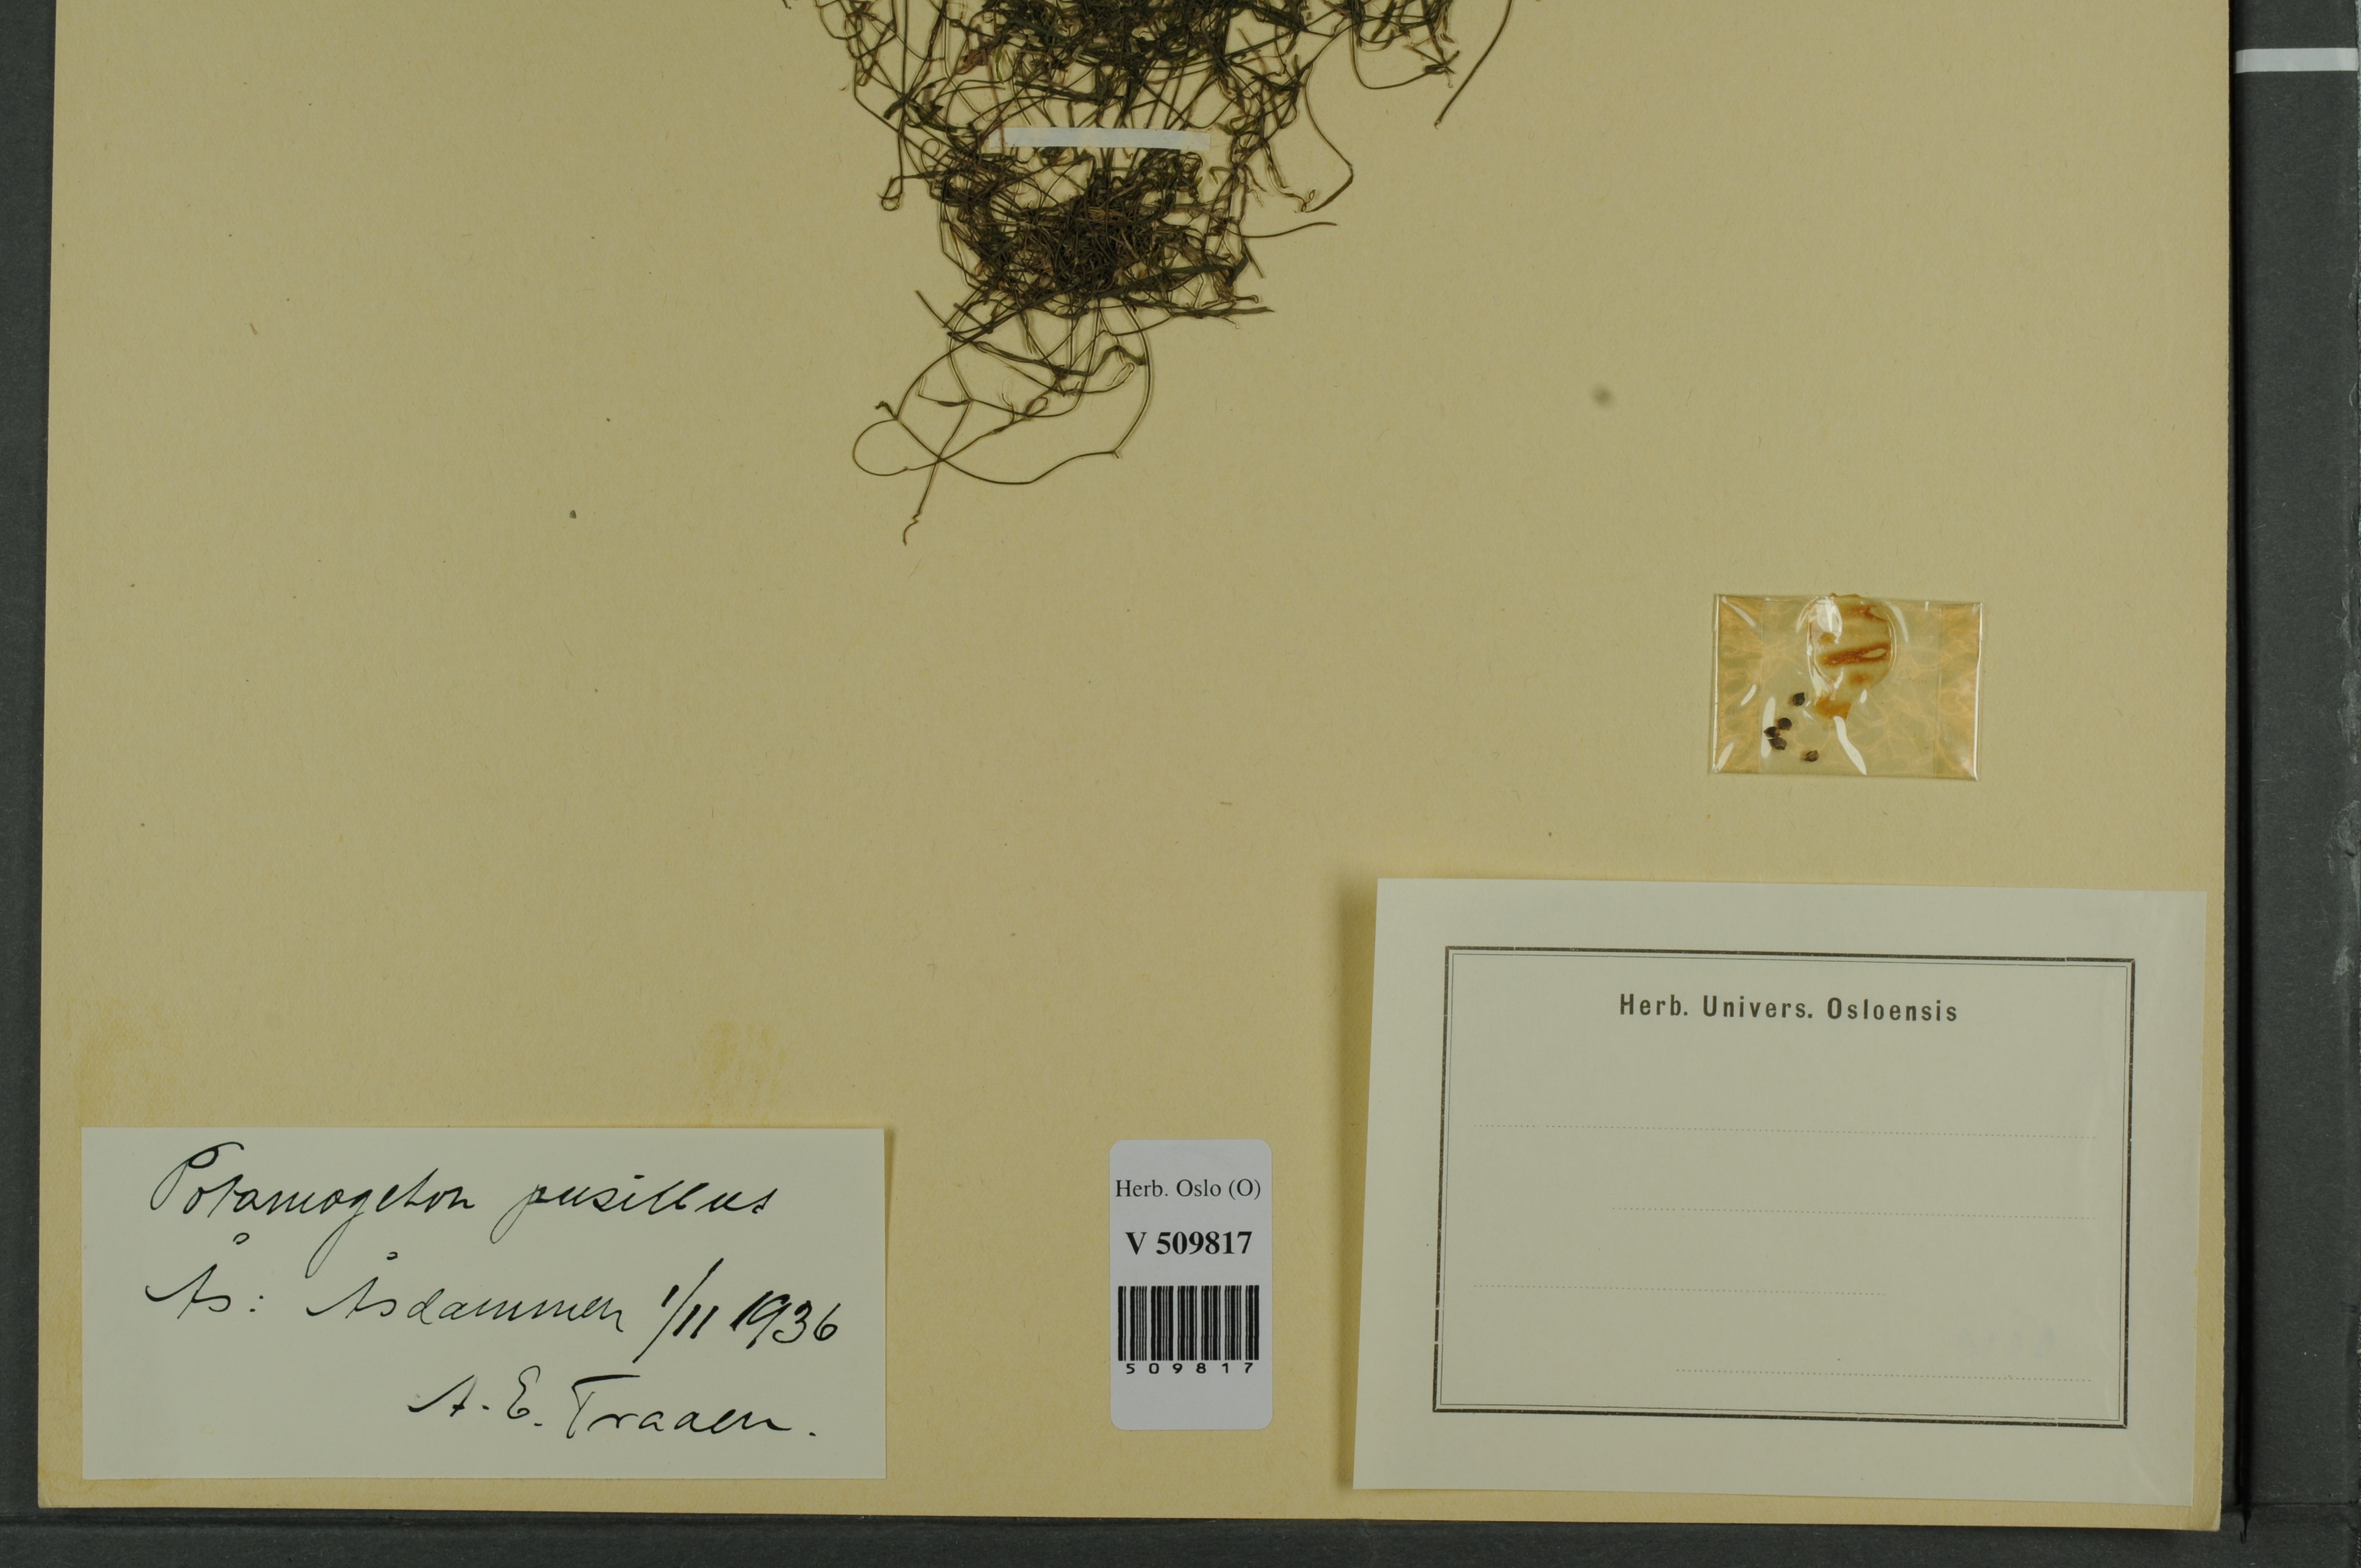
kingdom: Plantae
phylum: Tracheophyta
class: Liliopsida
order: Alismatales
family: Potamogetonaceae
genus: Potamogeton
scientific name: Potamogeton berchtoldii
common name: Small pondweed
